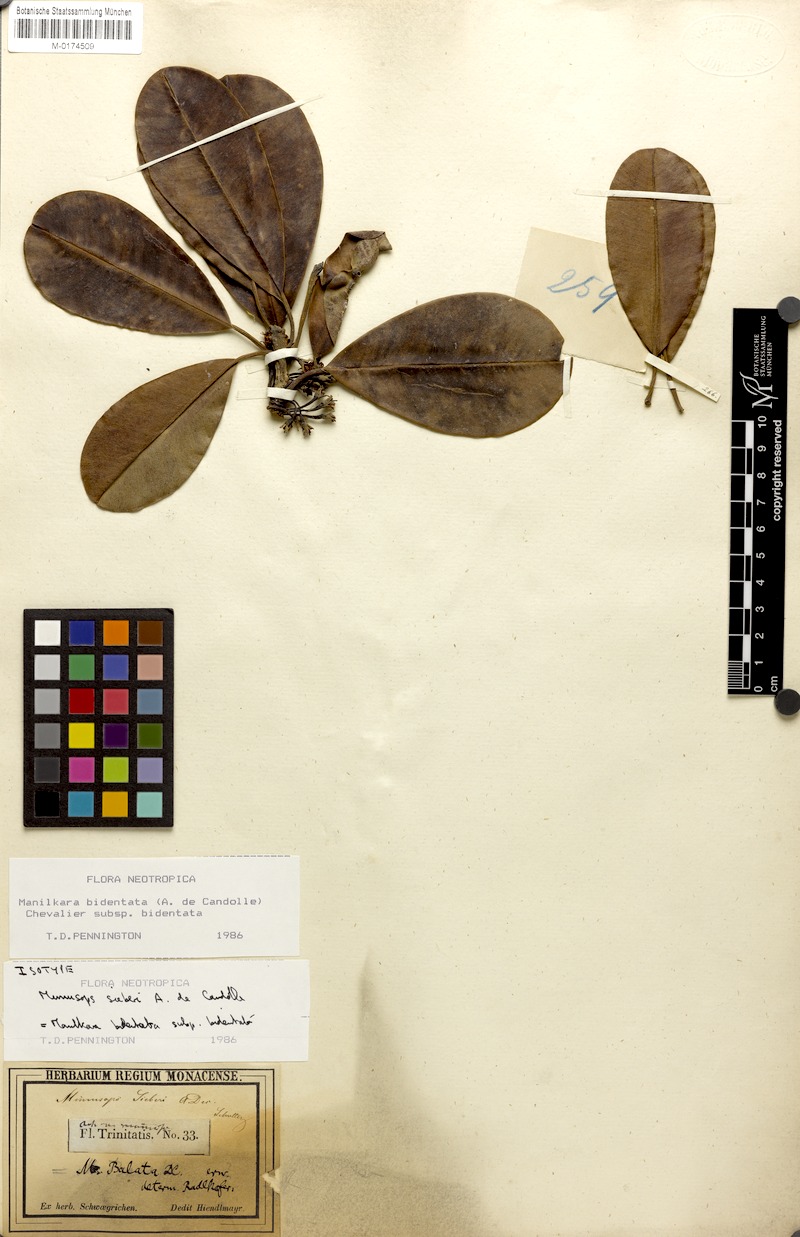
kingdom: Plantae
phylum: Tracheophyta
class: Magnoliopsida
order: Ericales
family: Sapotaceae
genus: Manilkara
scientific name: Manilkara bidentata
